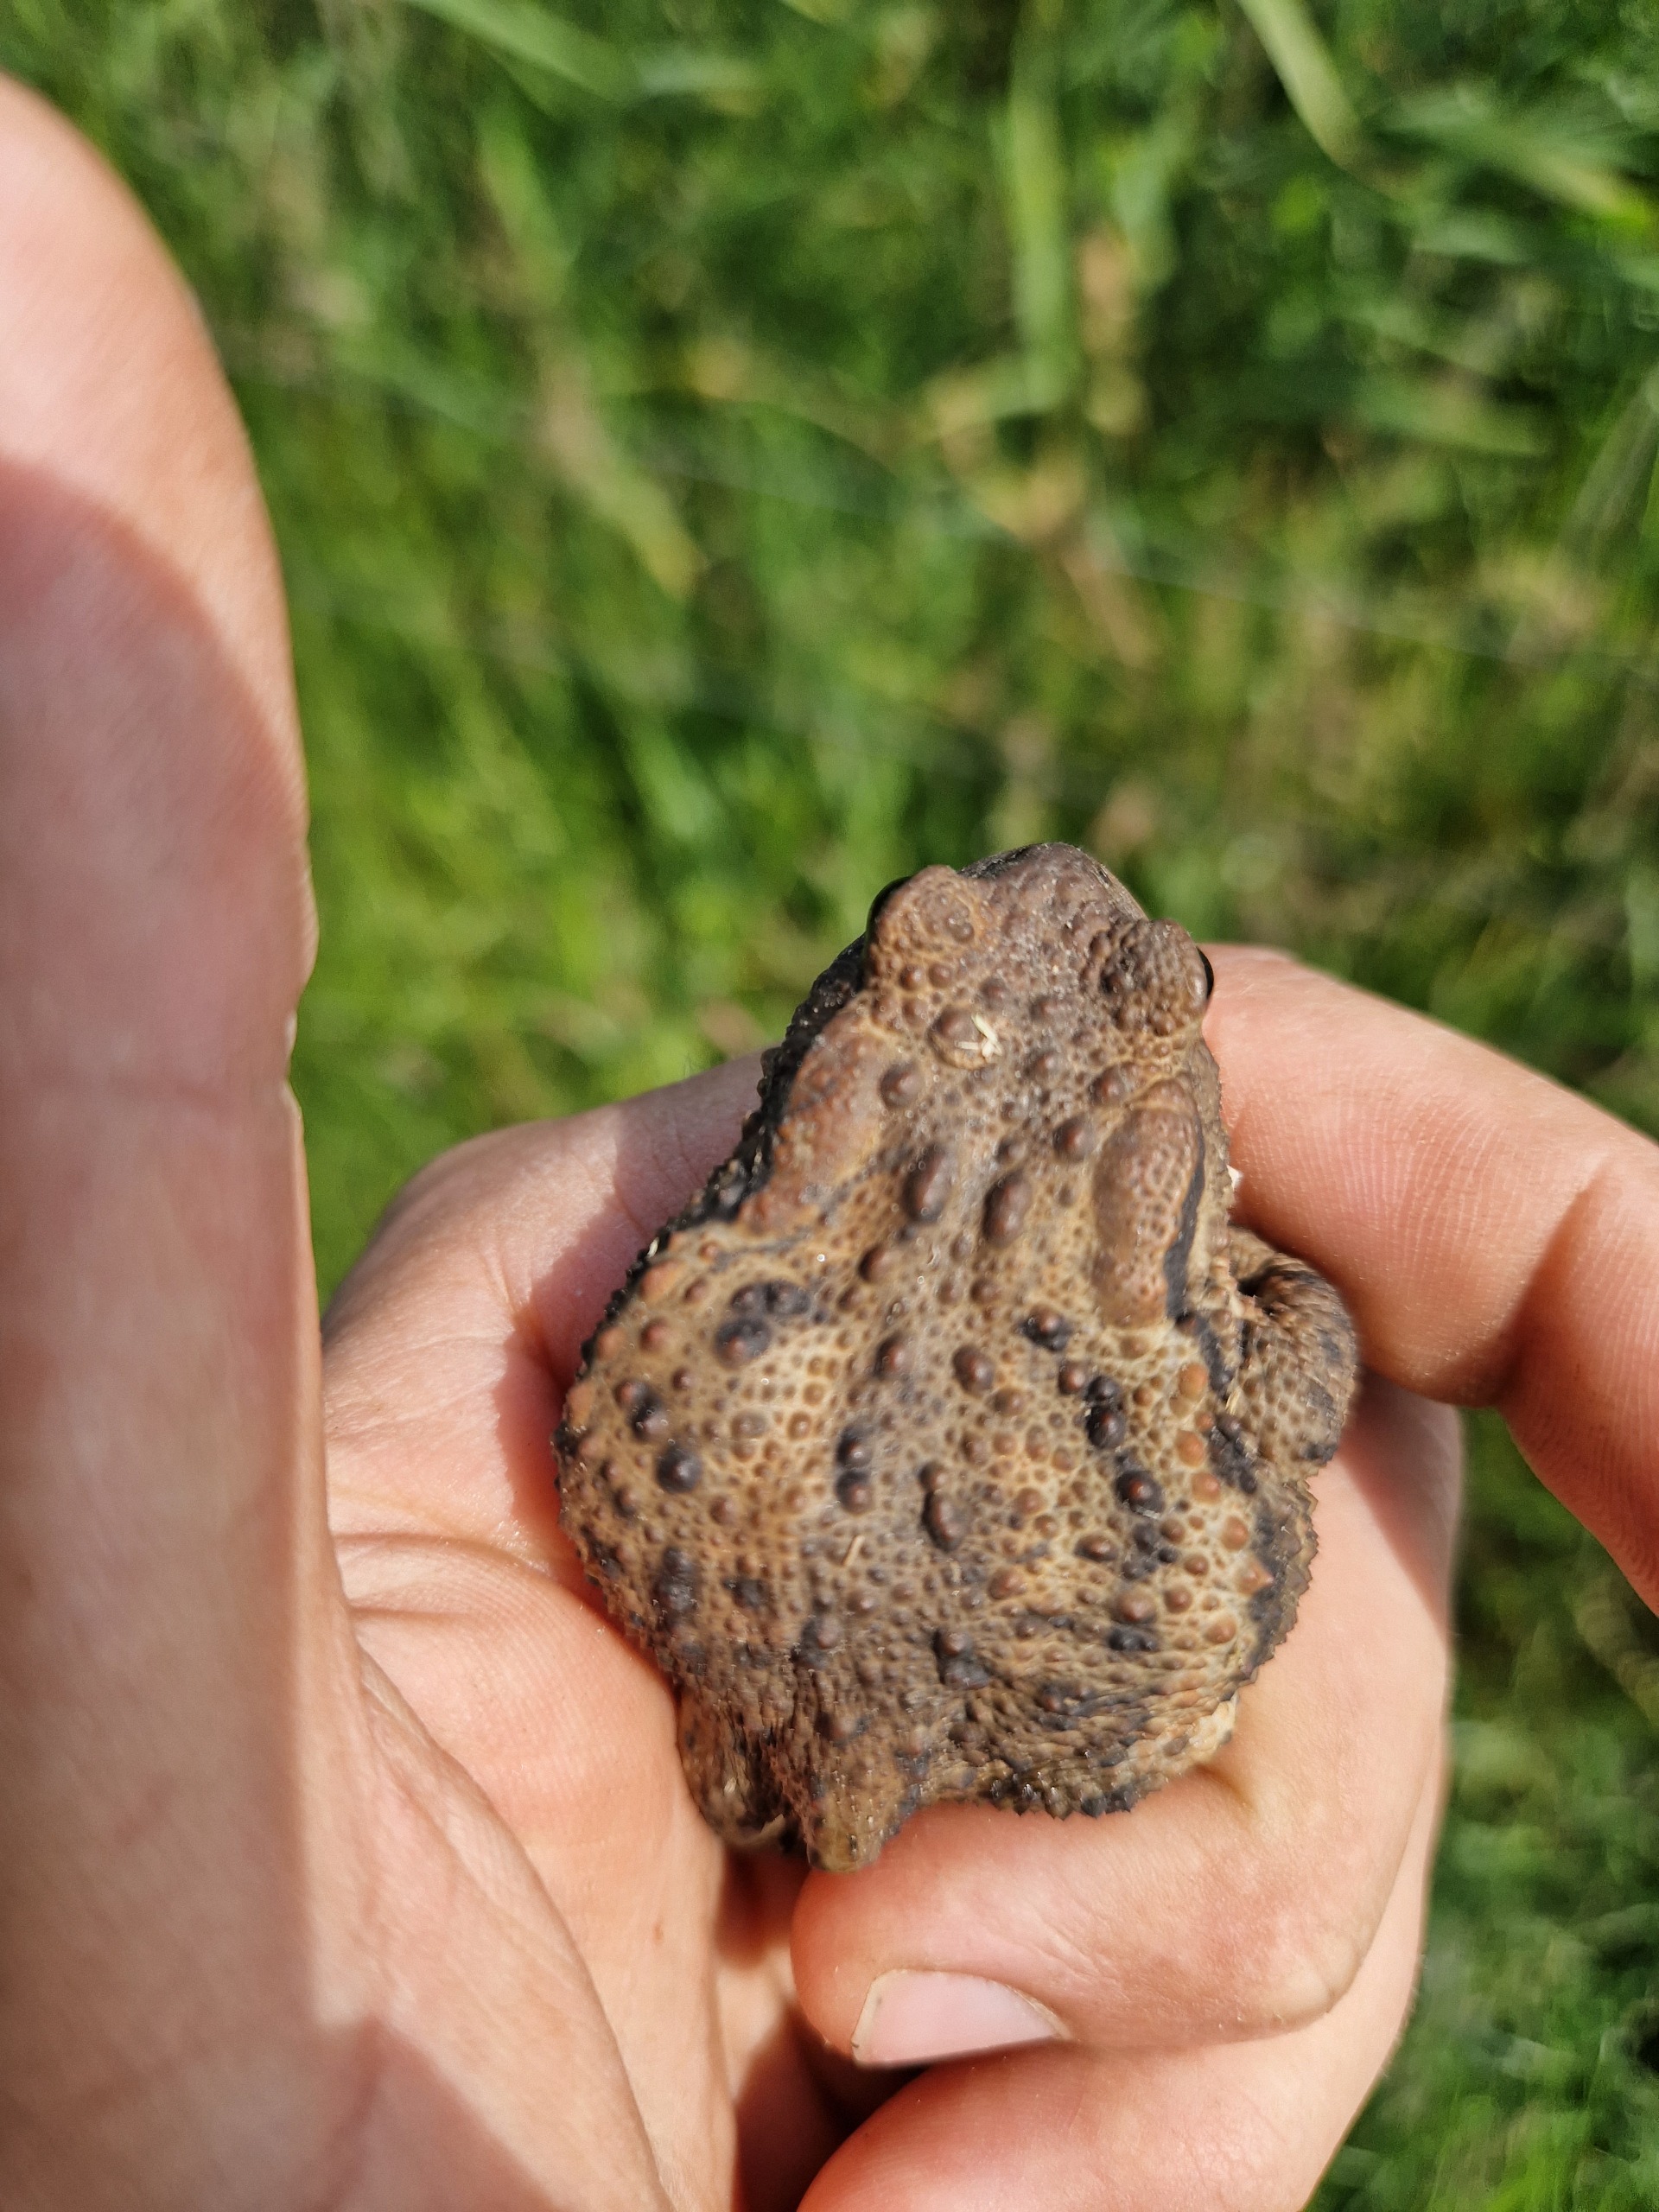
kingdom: Animalia
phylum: Chordata
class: Amphibia
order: Anura
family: Bufonidae
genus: Bufo
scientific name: Bufo bufo
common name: Skrubtudse
